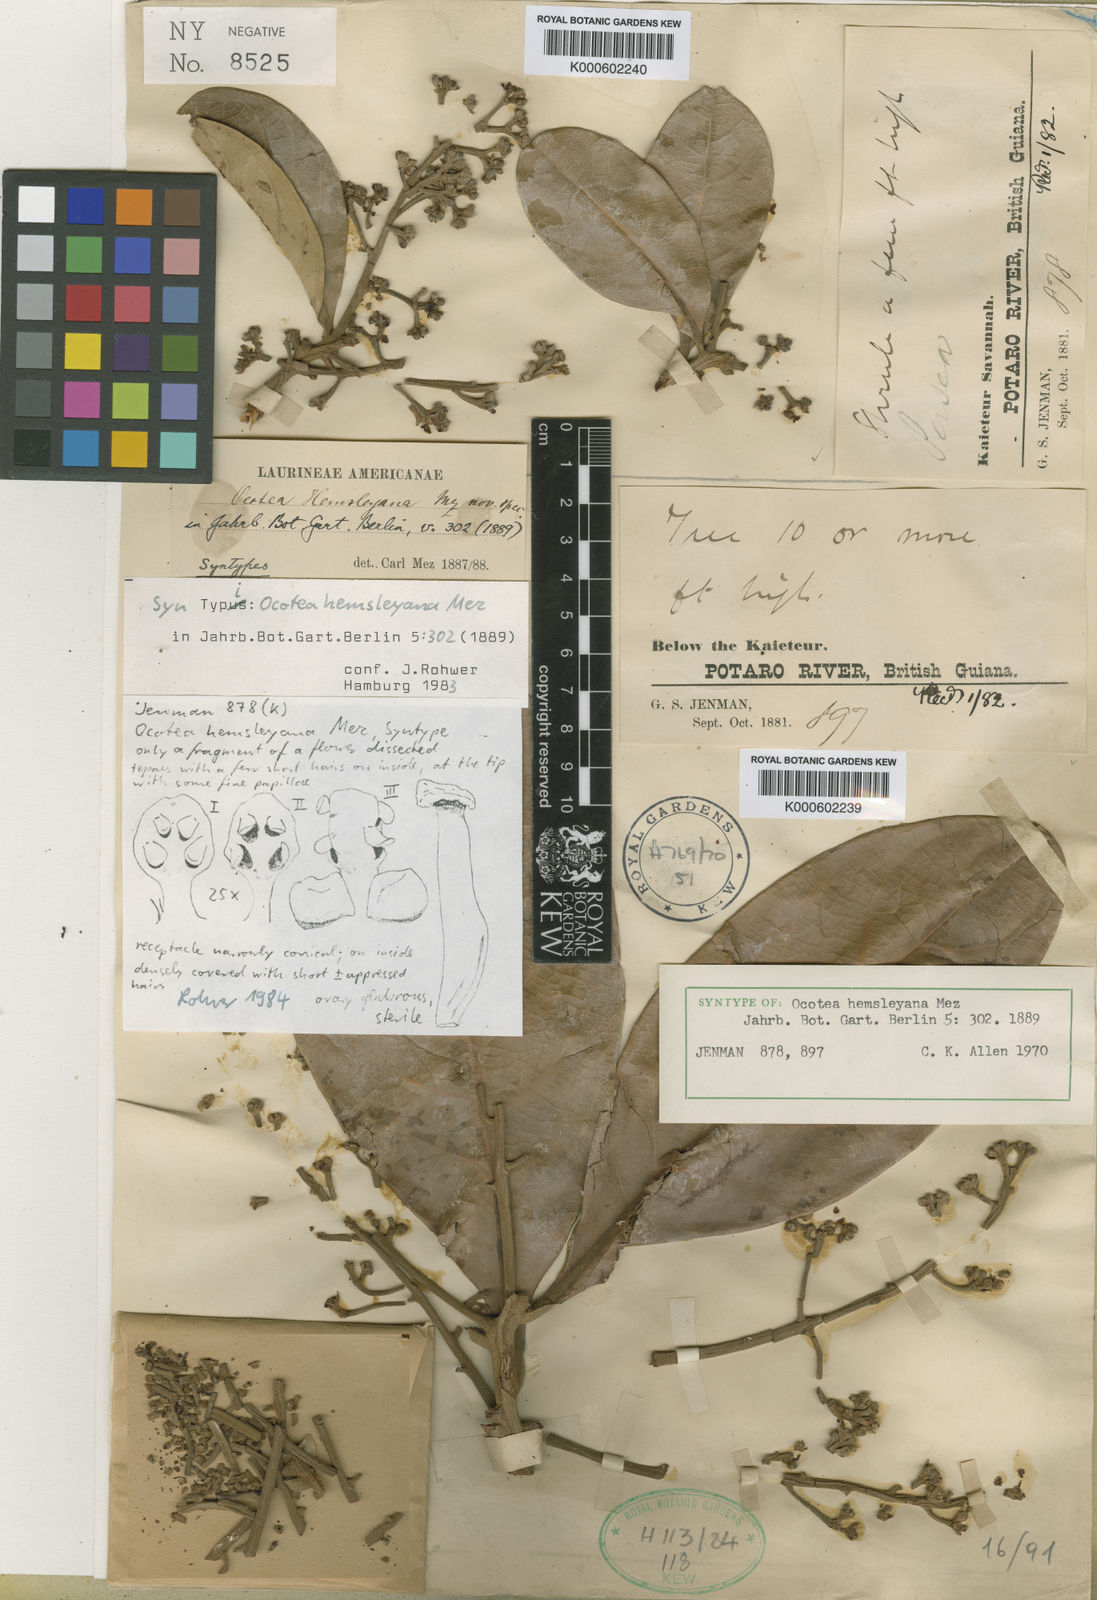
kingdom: Plantae
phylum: Tracheophyta
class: Magnoliopsida
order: Laurales
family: Lauraceae
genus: Ocotea
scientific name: Ocotea hemsleyana
